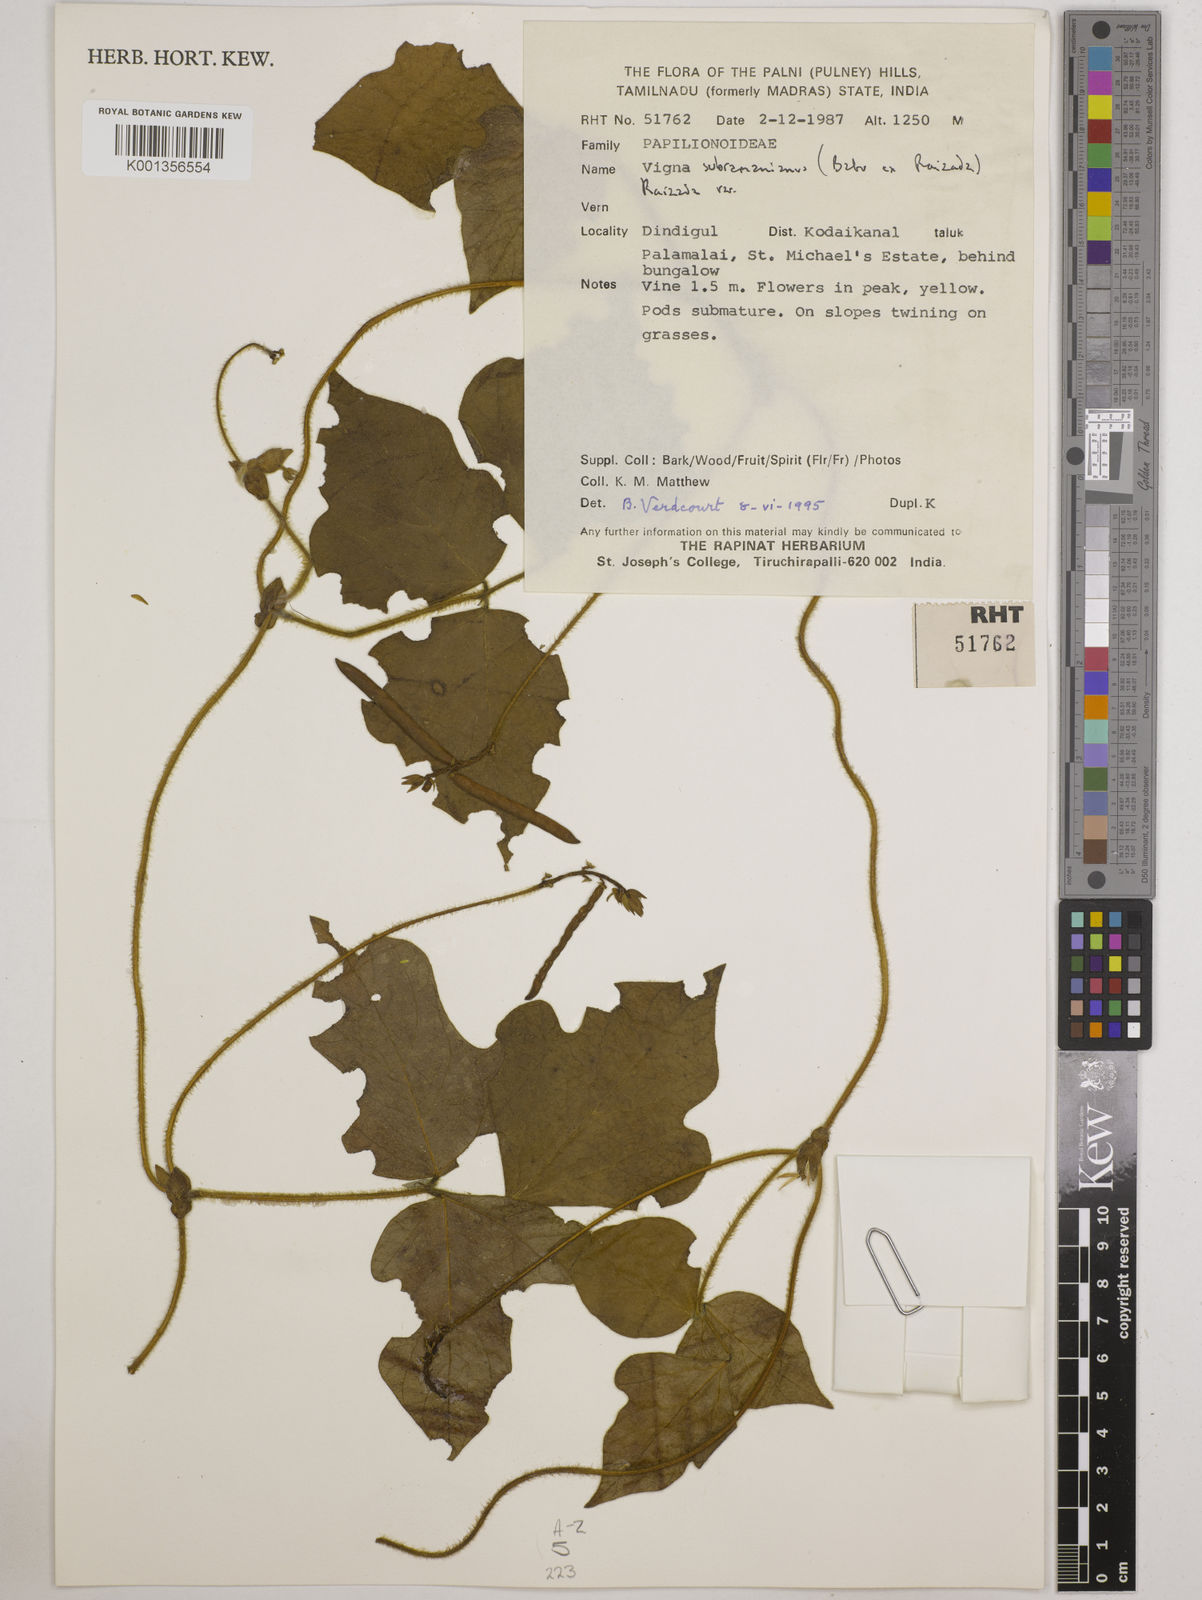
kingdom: Plantae
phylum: Tracheophyta
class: Magnoliopsida
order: Fabales
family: Fabaceae
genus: Vigna
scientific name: Vigna subramaniana
